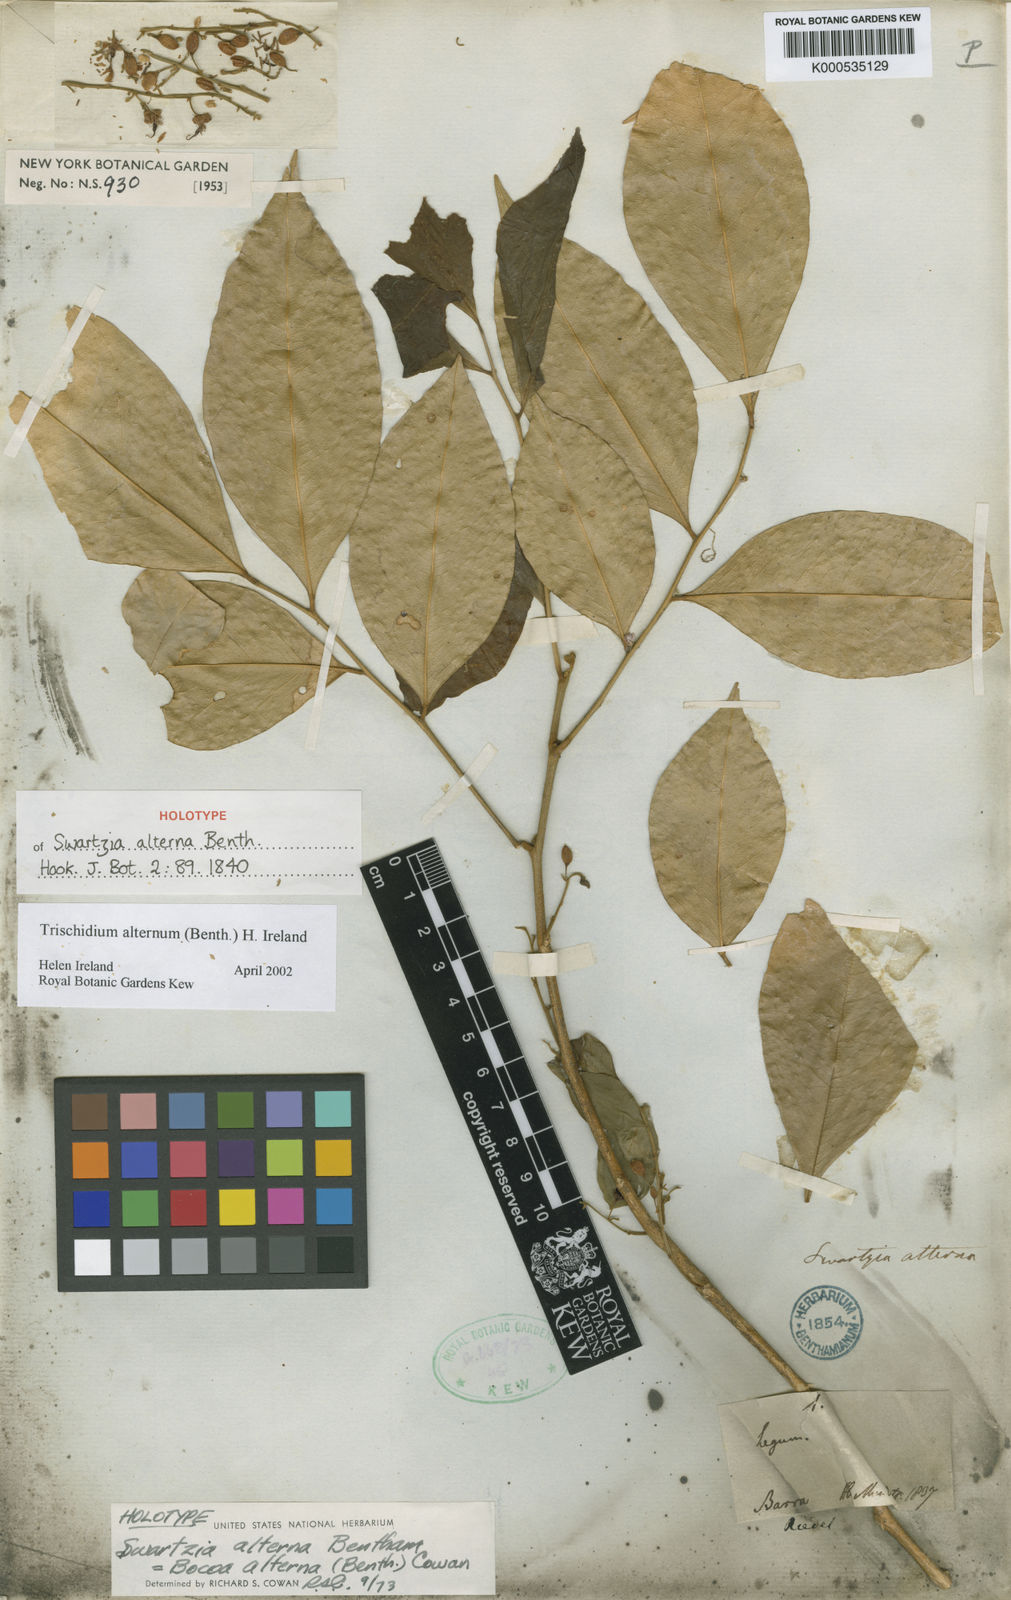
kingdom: Plantae
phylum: Tracheophyta
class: Magnoliopsida
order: Fabales
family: Fabaceae
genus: Trischidium
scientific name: Trischidium alternum
